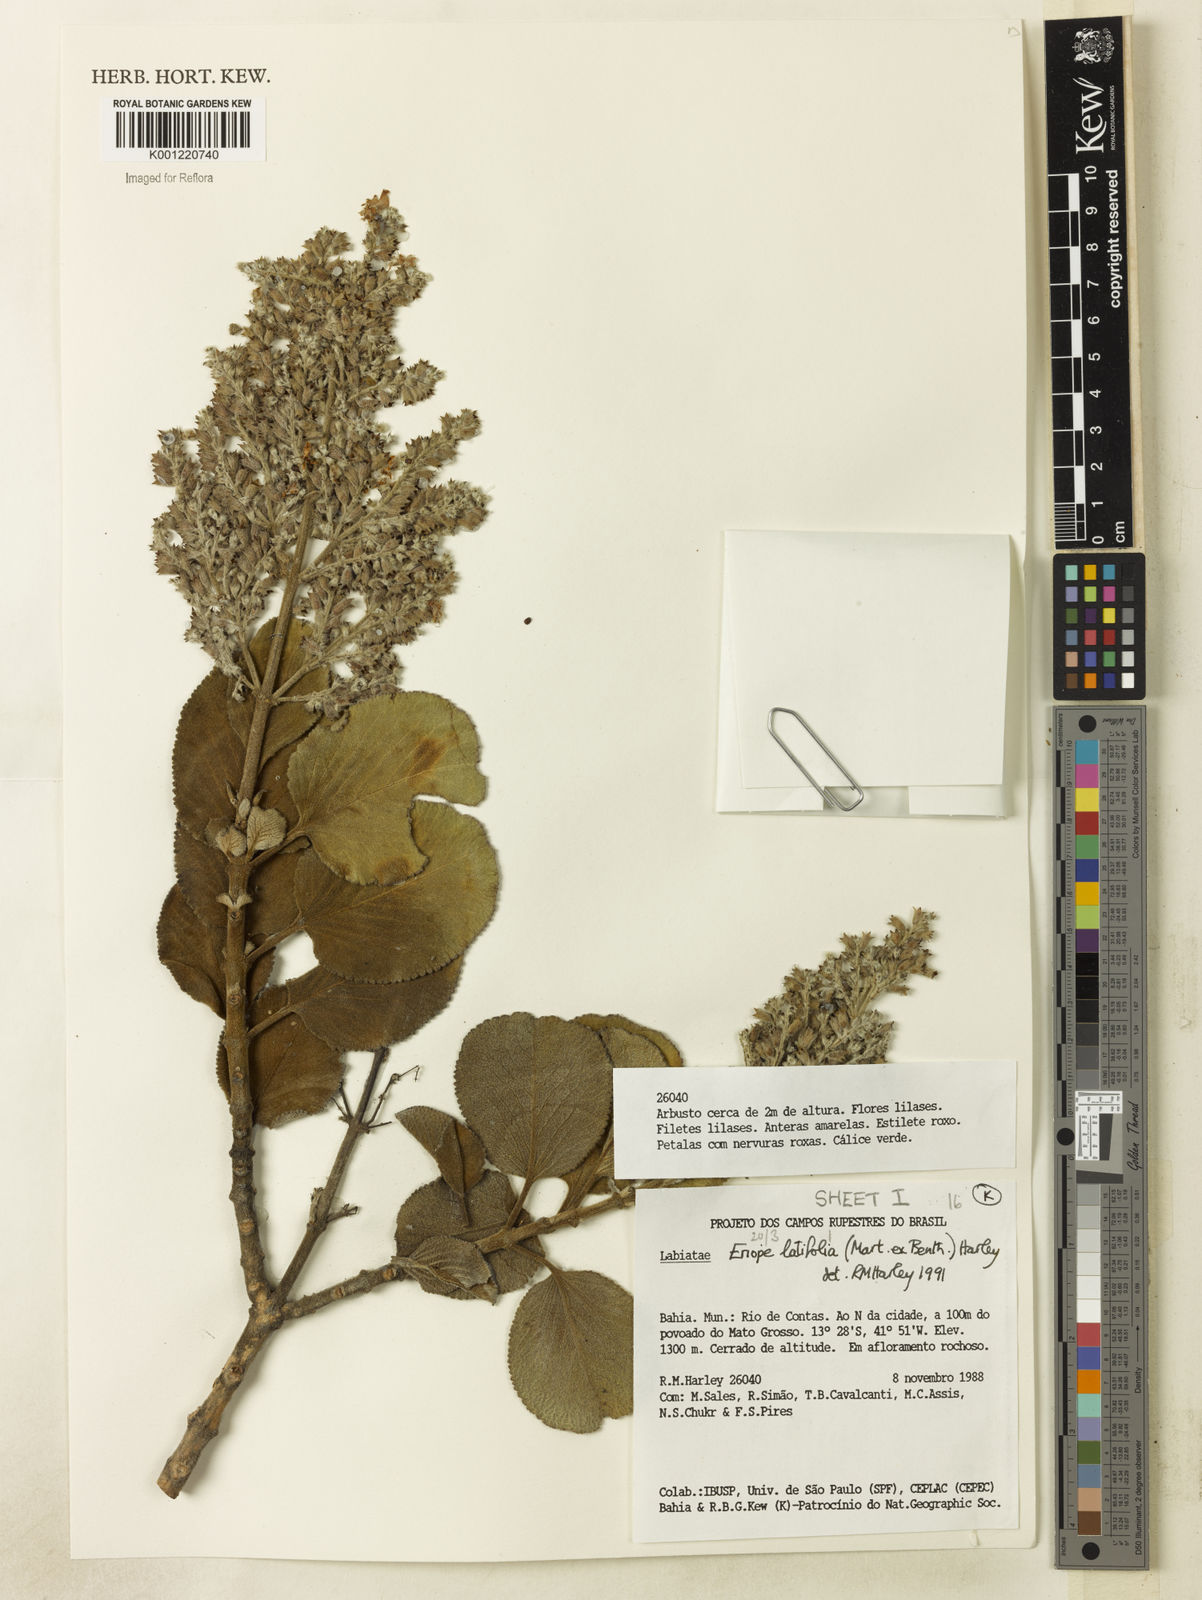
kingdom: Plantae
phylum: Tracheophyta
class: Magnoliopsida
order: Lamiales
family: Lamiaceae
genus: Eriope
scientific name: Eriope latifolia
